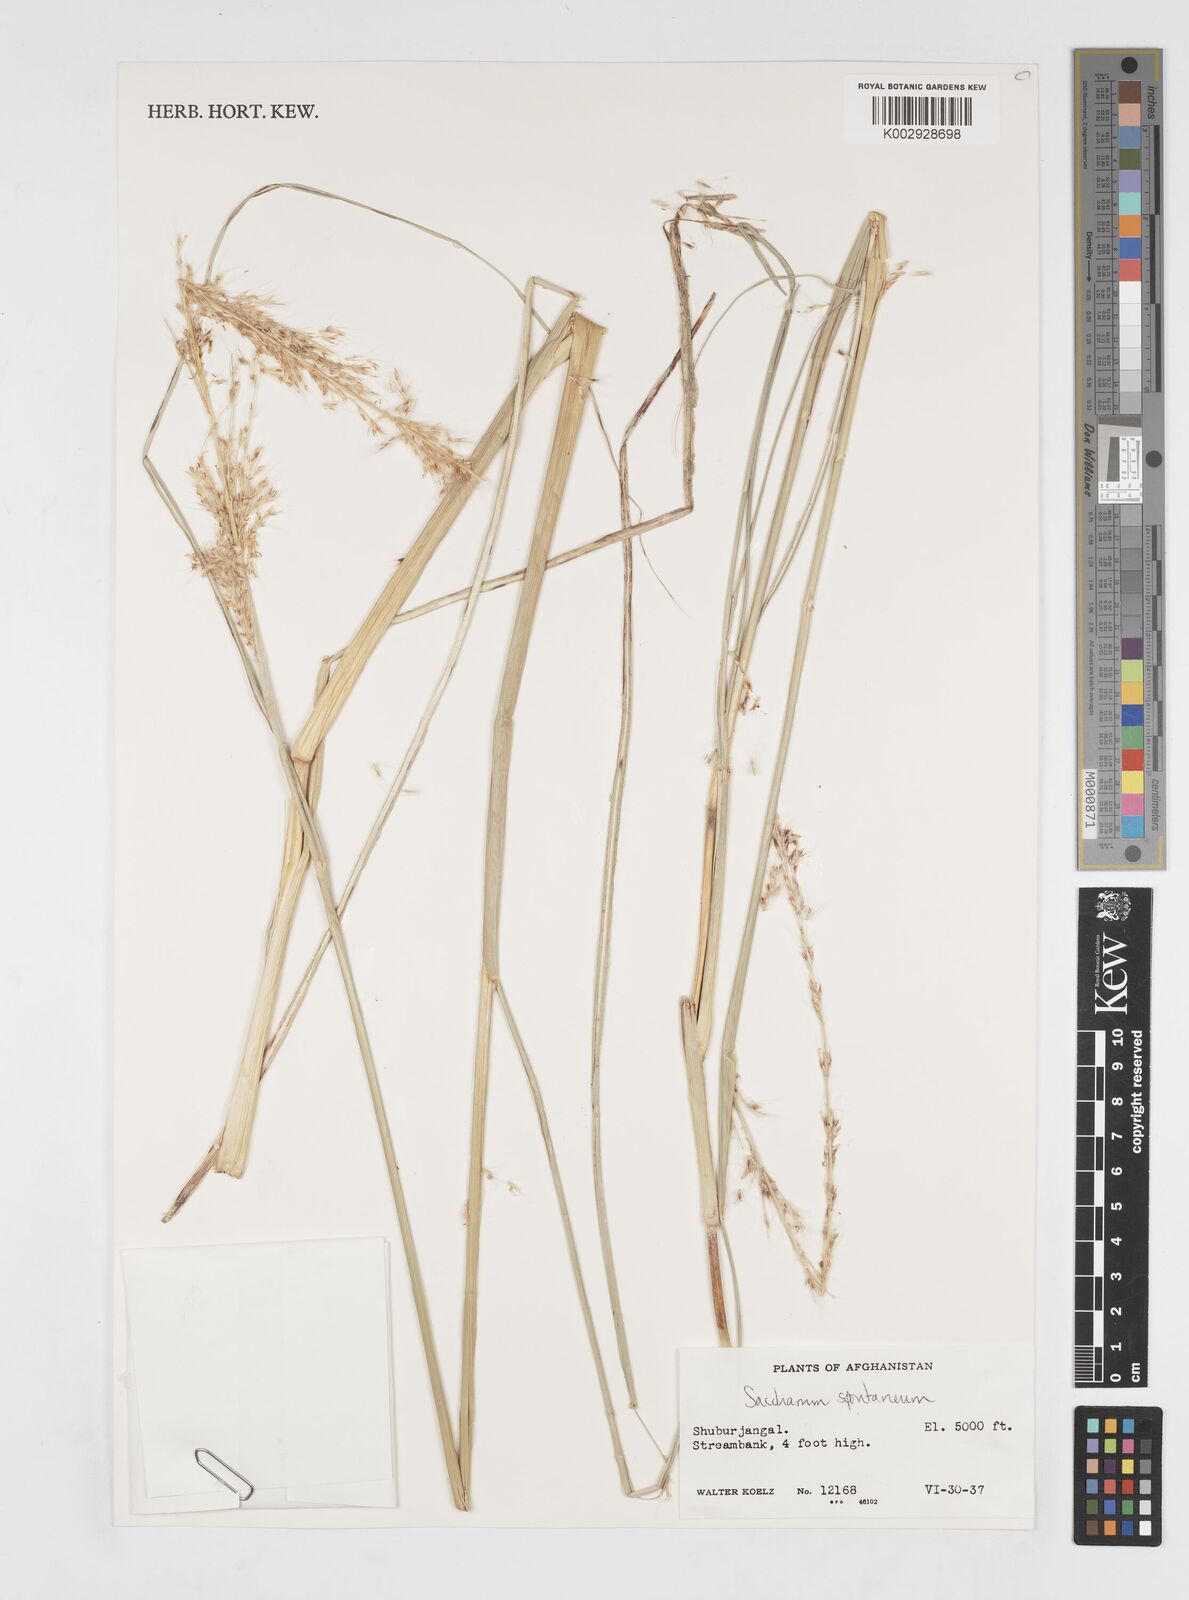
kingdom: Plantae
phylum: Tracheophyta
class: Liliopsida
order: Poales
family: Poaceae
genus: Saccharum
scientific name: Saccharum spontaneum
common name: Wild sugarcane
